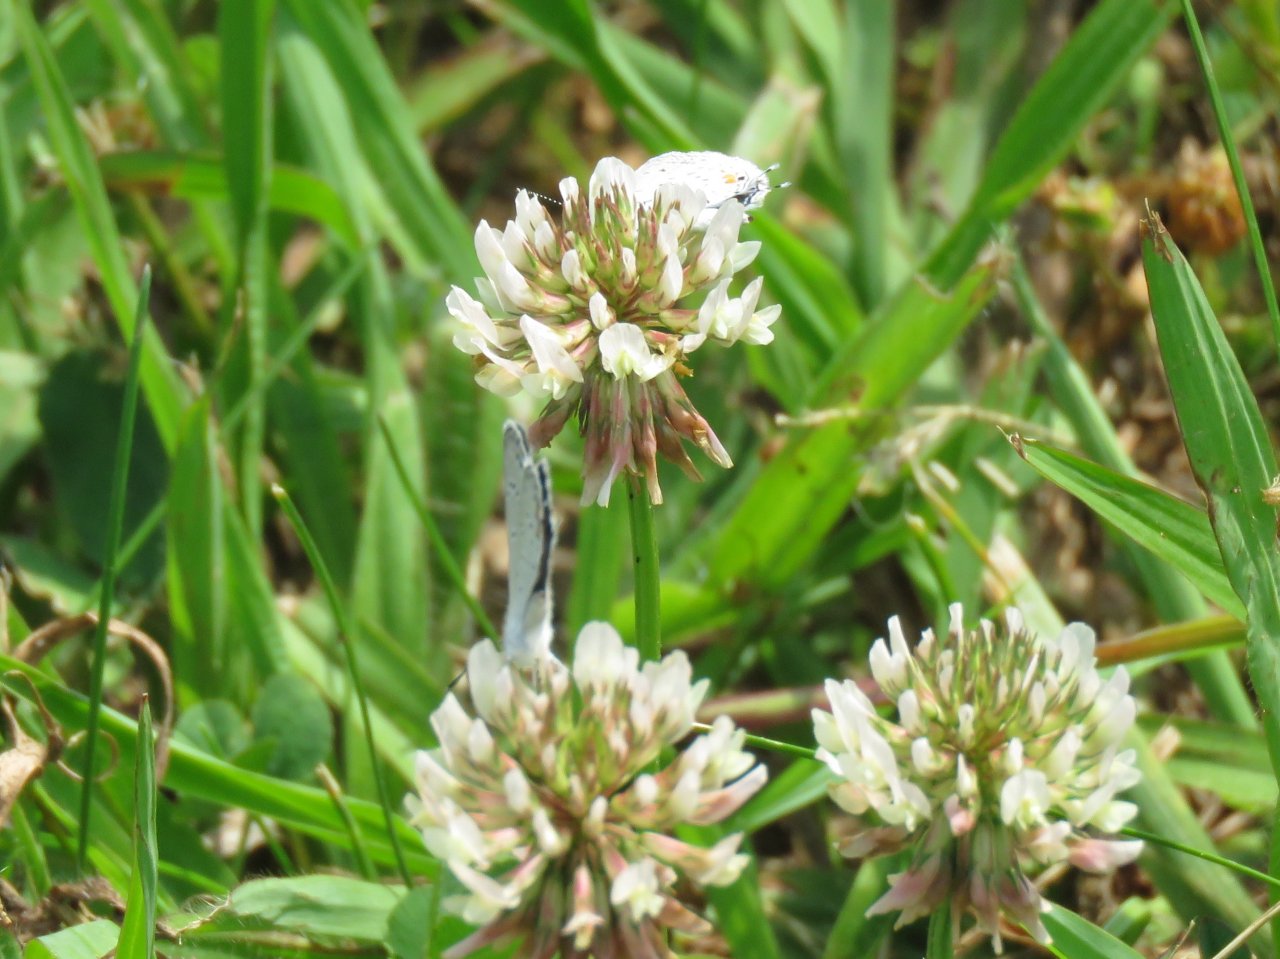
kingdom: Animalia
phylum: Arthropoda
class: Insecta
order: Lepidoptera
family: Lycaenidae
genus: Elkalyce
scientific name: Elkalyce comyntas
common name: Eastern Tailed-Blue
